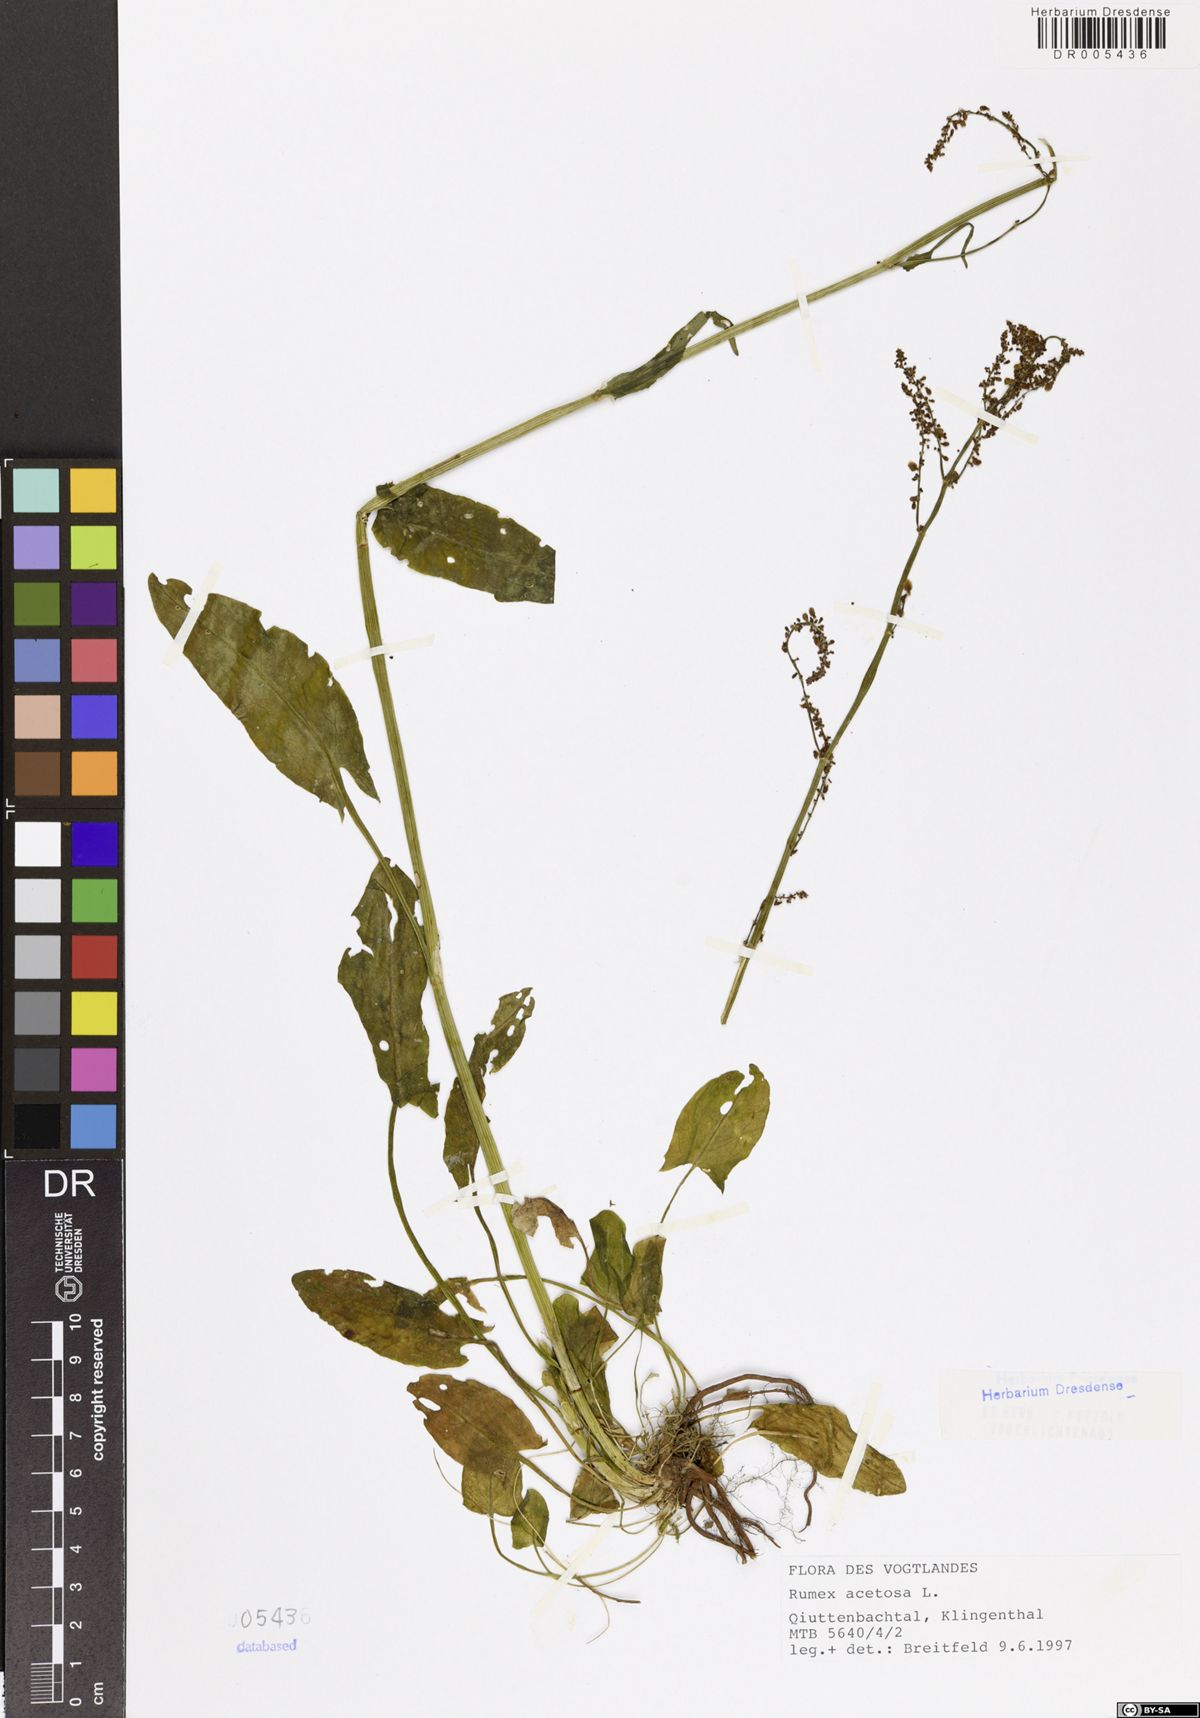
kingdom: Plantae
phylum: Tracheophyta
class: Magnoliopsida
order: Caryophyllales
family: Polygonaceae
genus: Rumex
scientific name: Rumex acetosa
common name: Garden sorrel
